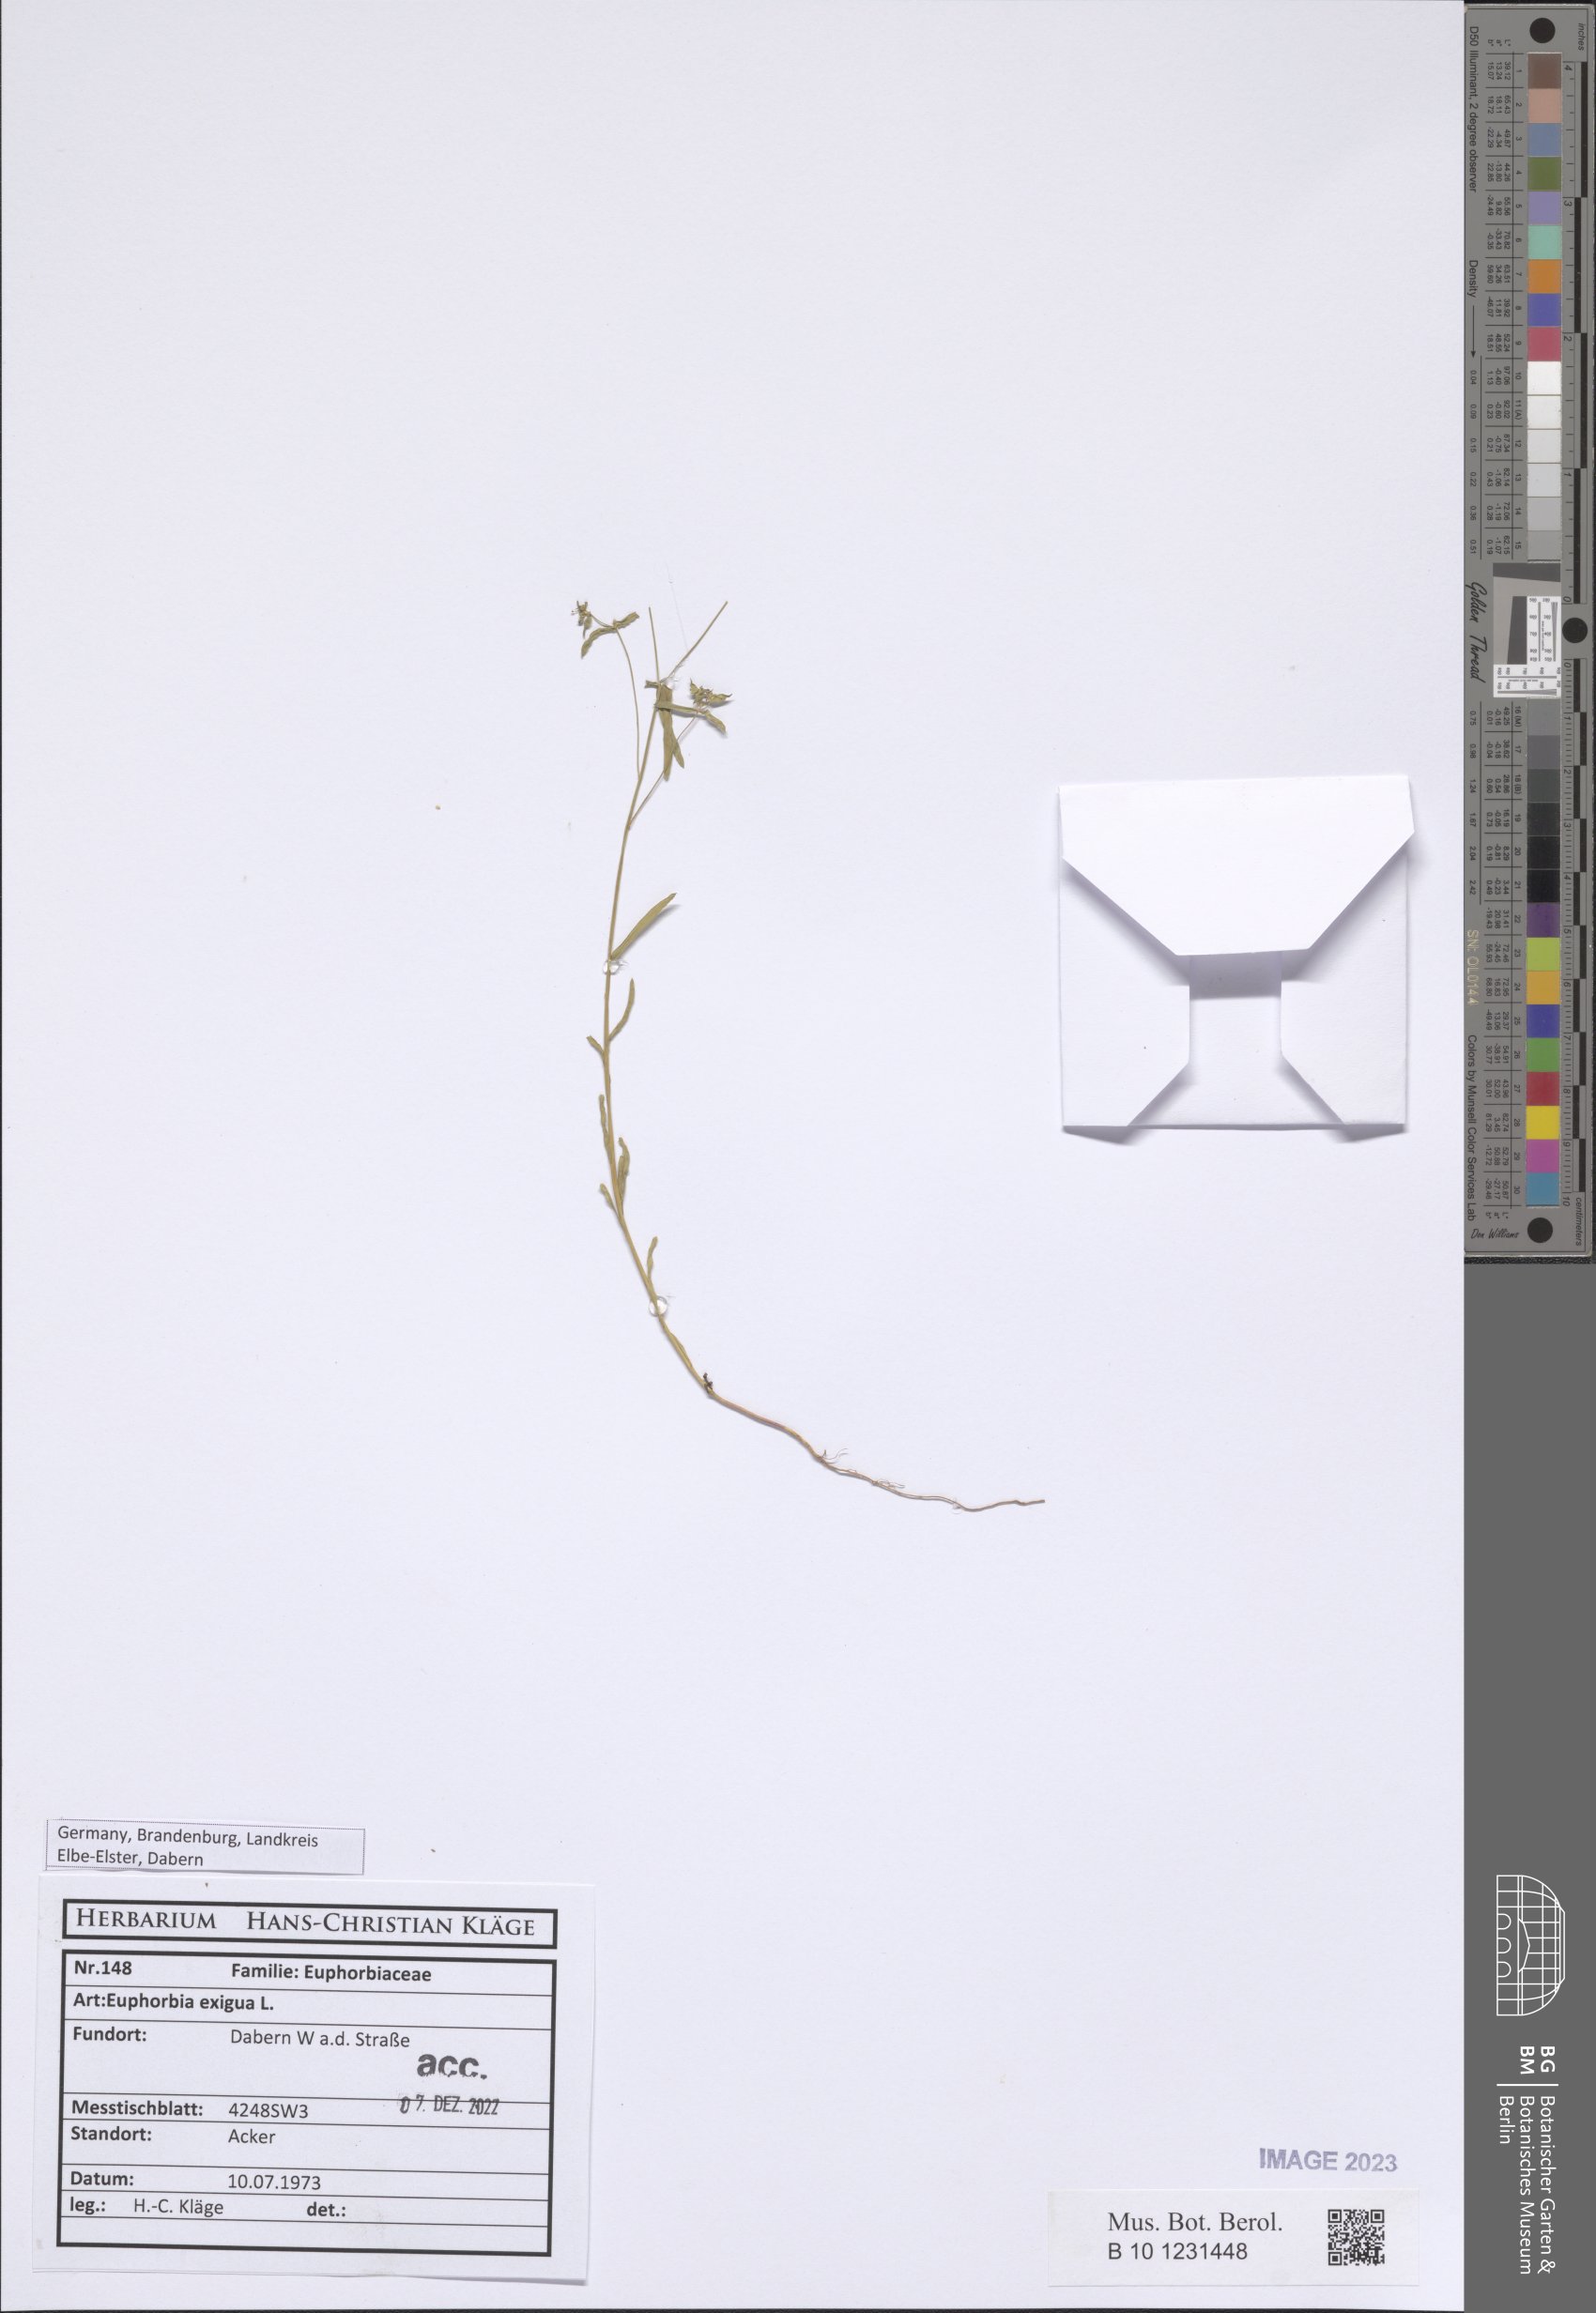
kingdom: Plantae
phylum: Tracheophyta
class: Magnoliopsida
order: Malpighiales
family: Euphorbiaceae
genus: Euphorbia
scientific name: Euphorbia exigua
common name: Dwarf spurge
